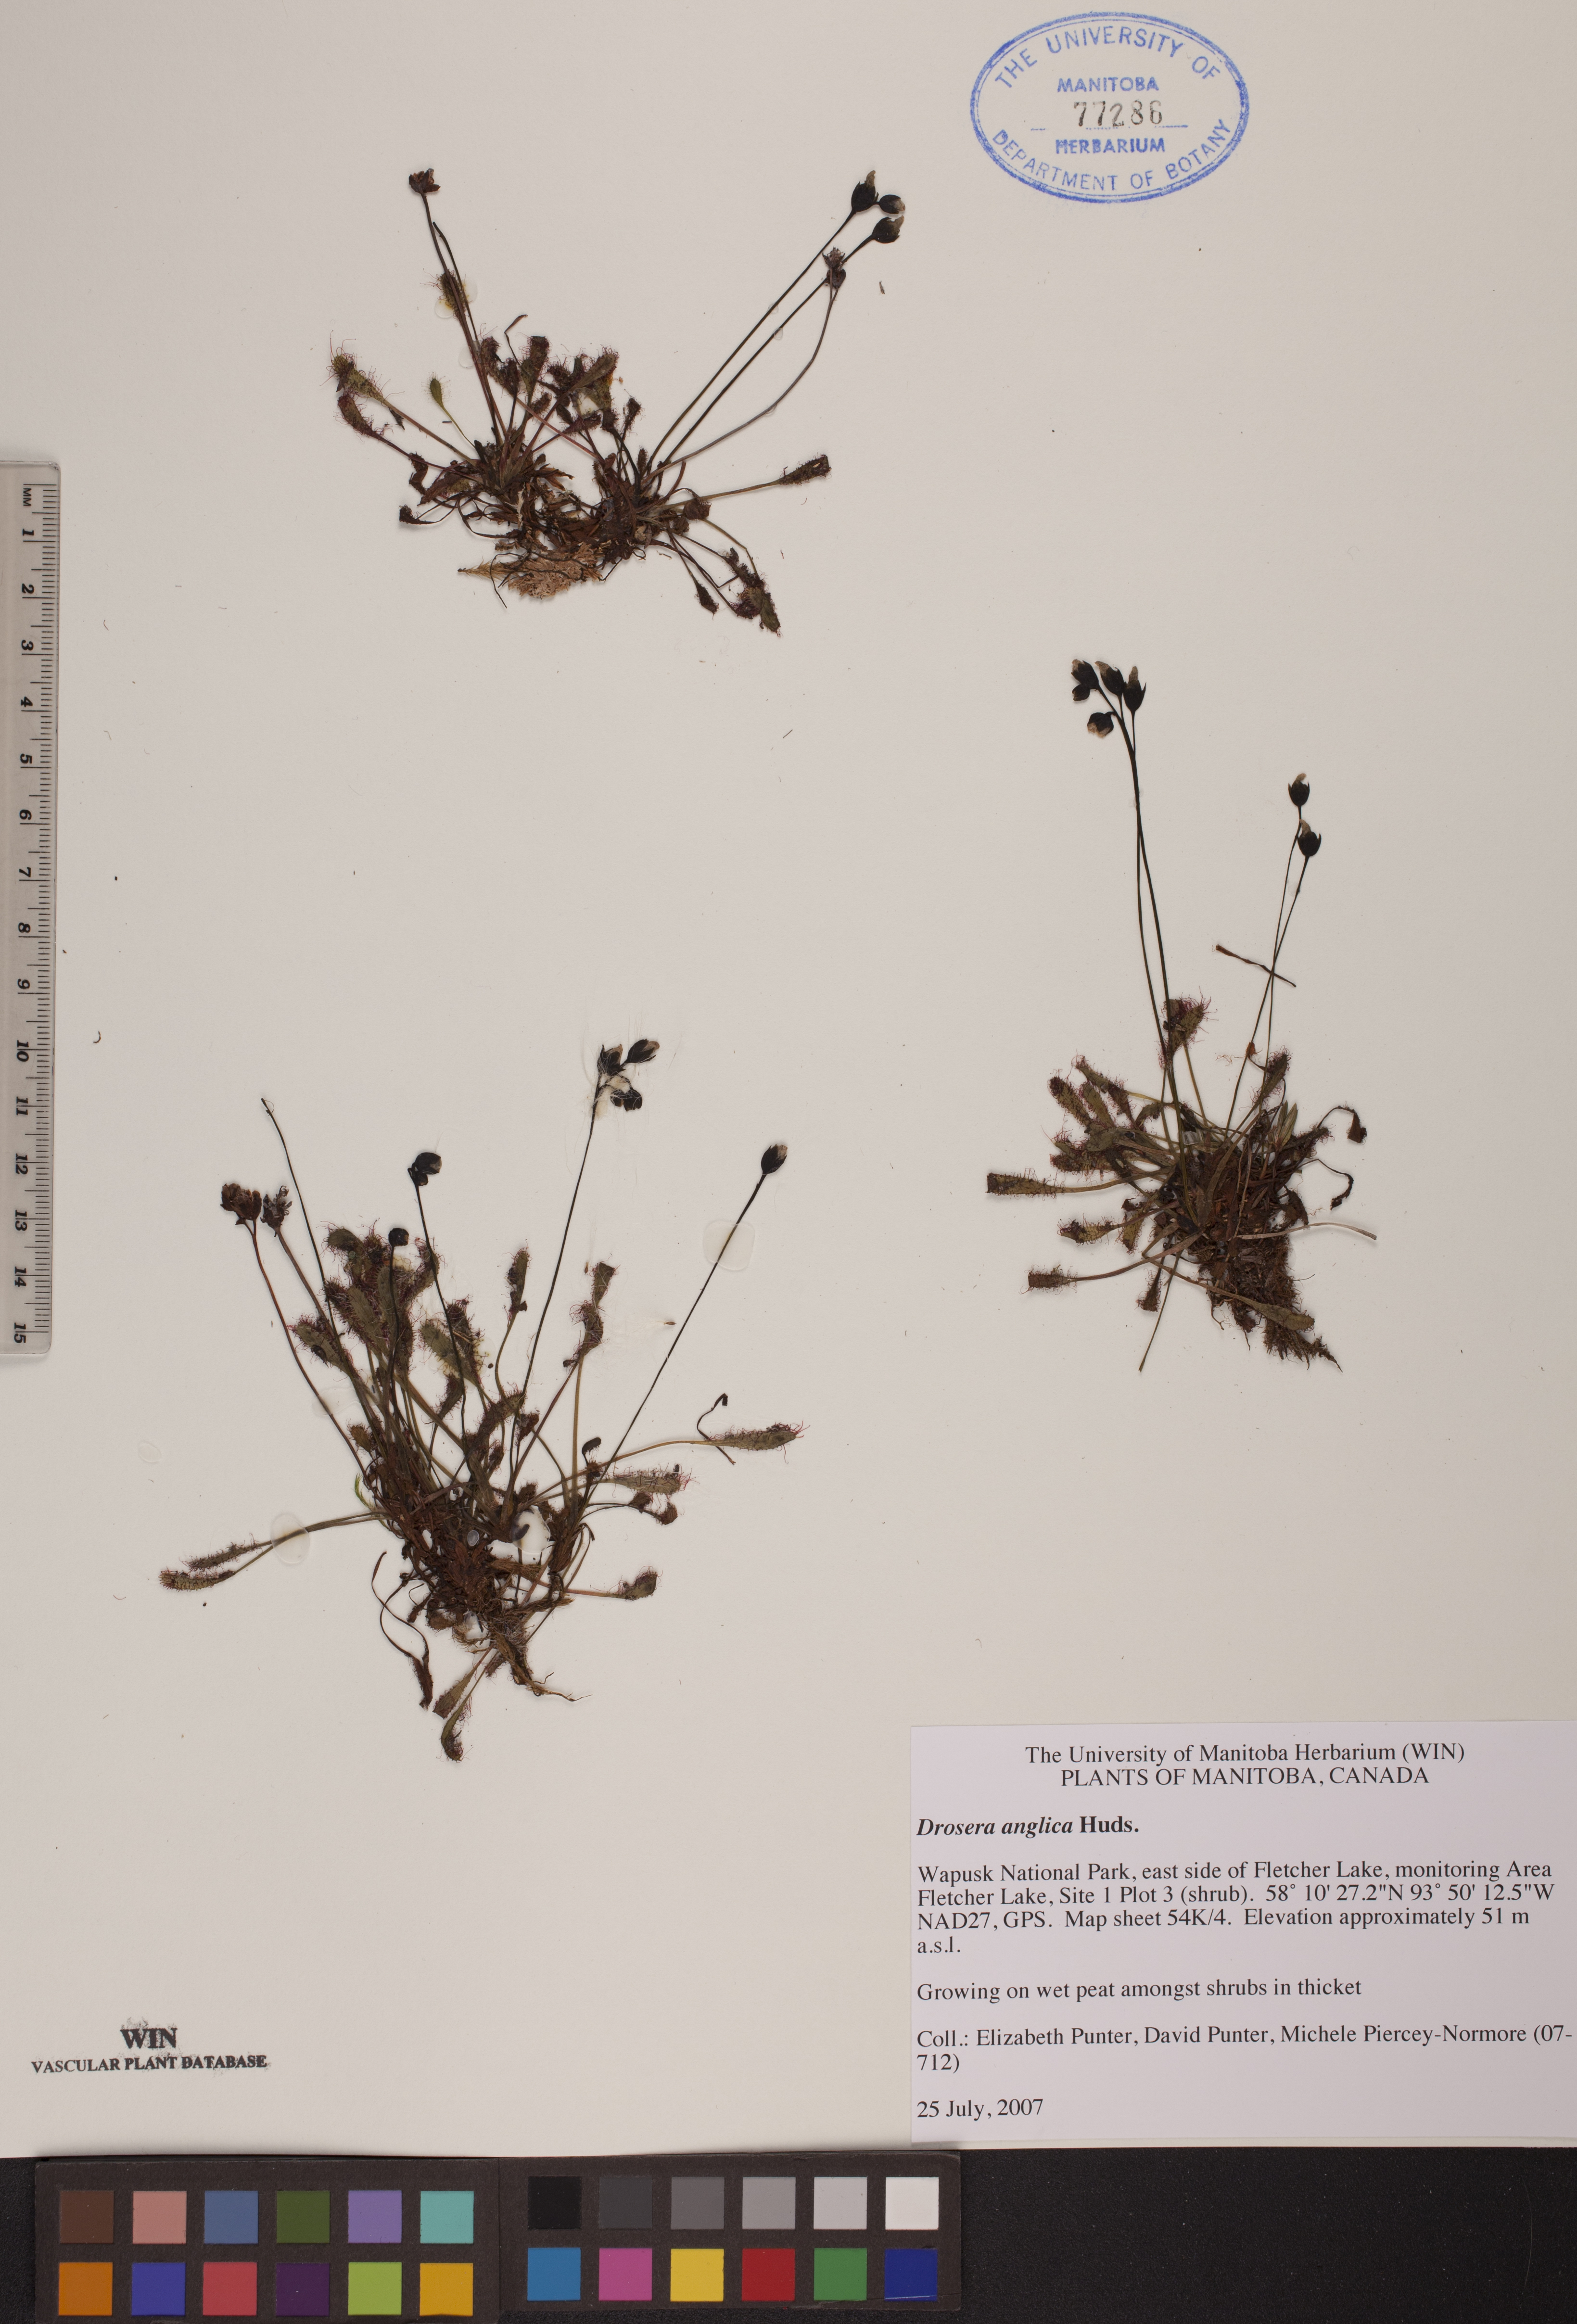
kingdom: Plantae
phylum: Tracheophyta
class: Magnoliopsida
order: Caryophyllales
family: Droseraceae
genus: Drosera
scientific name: Drosera anglica
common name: Great sundew
